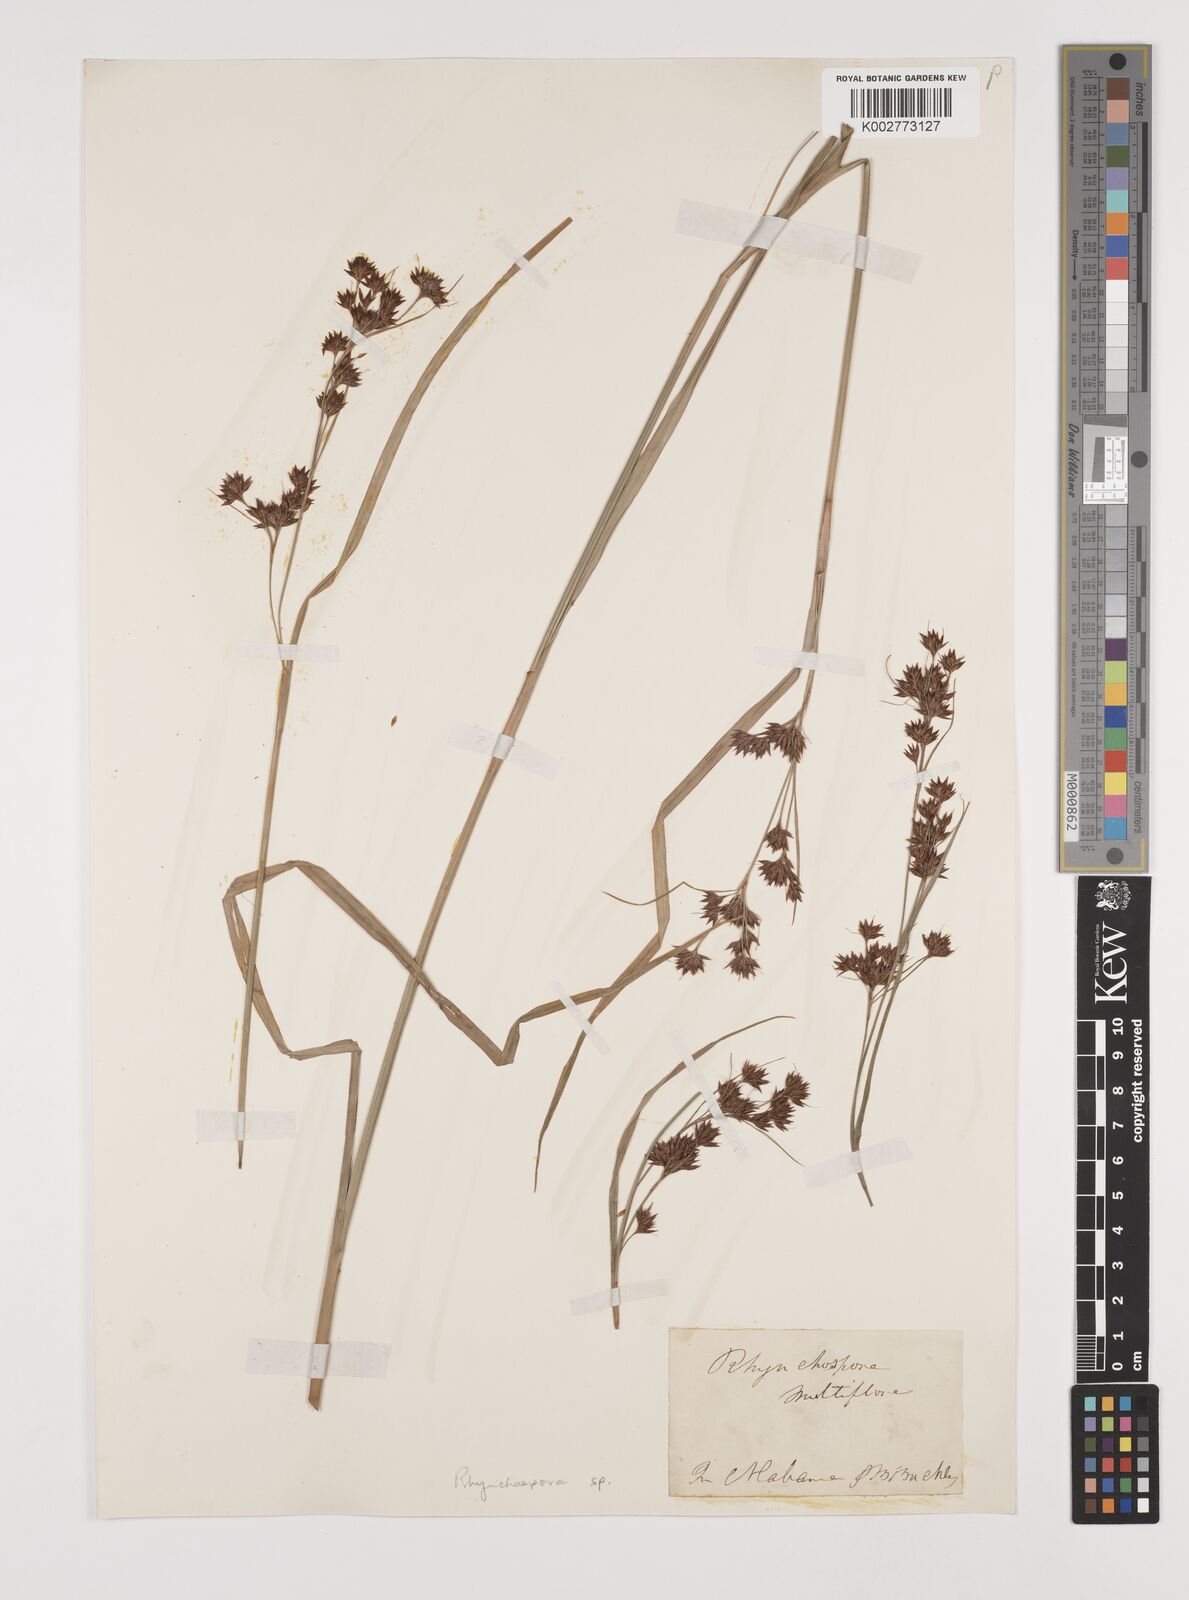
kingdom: Plantae
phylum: Tracheophyta
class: Liliopsida
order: Poales
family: Cyperaceae
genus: Rhynchospora
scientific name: Rhynchospora
